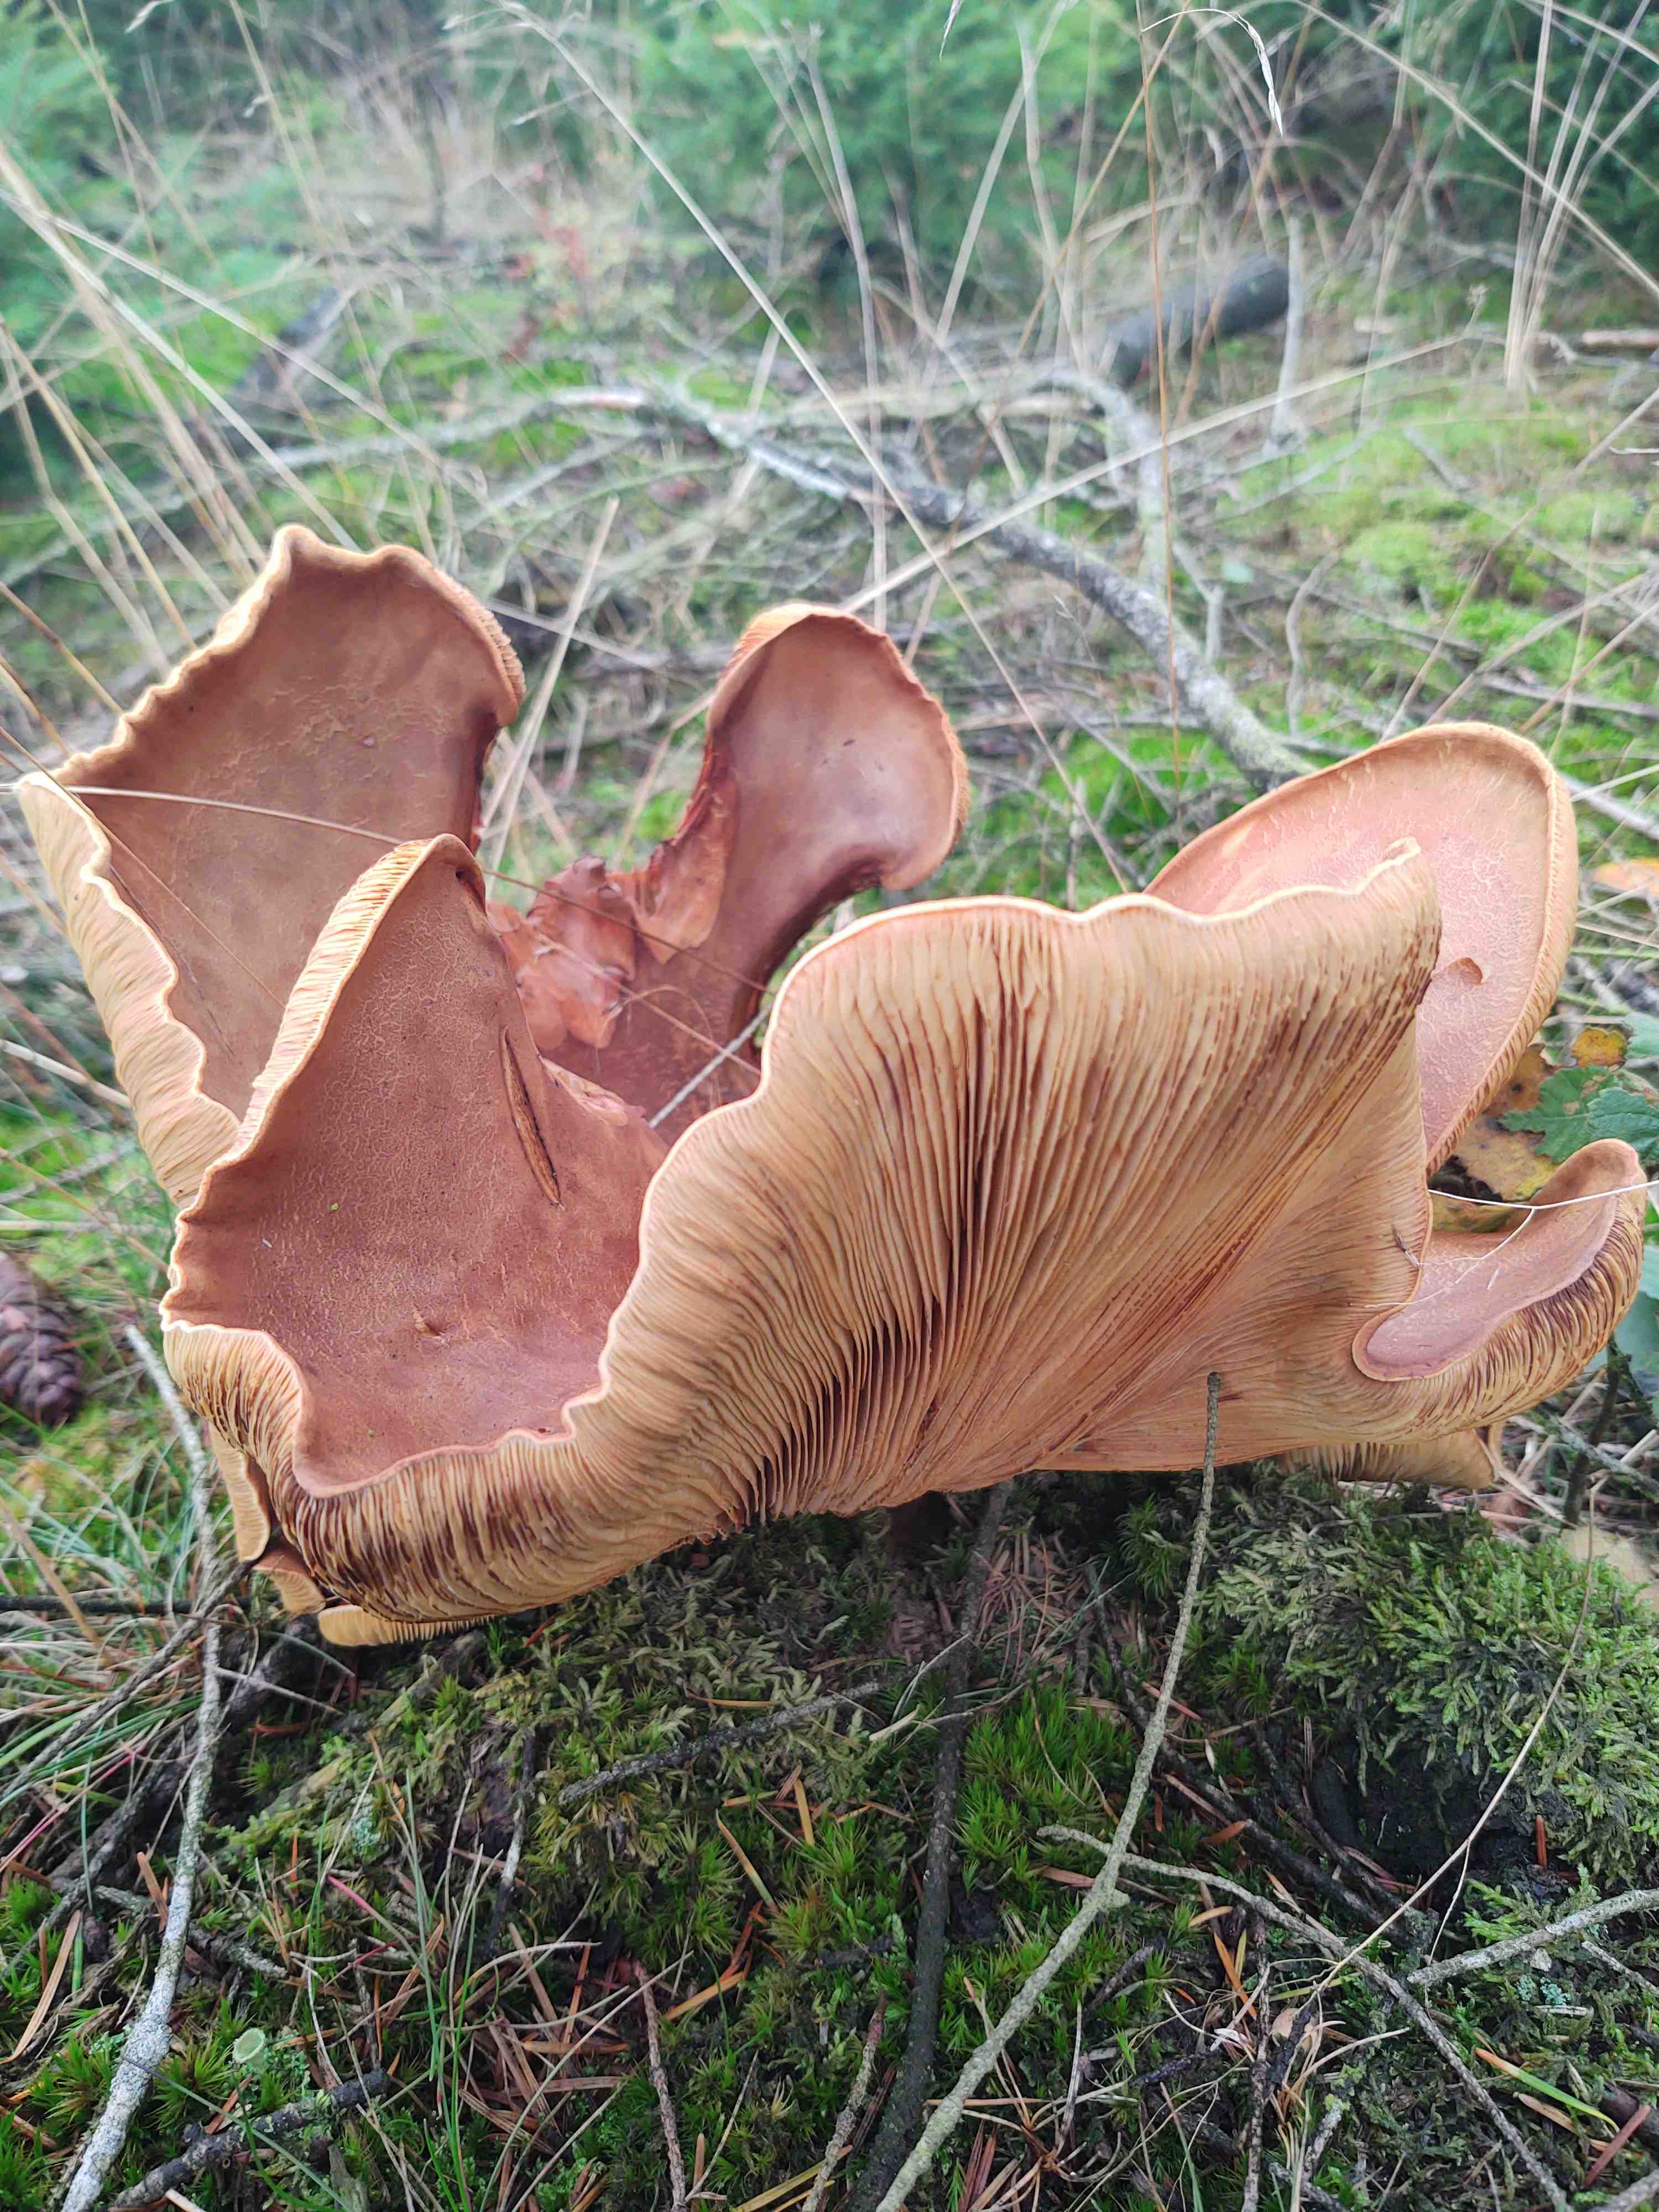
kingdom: Fungi
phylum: Basidiomycota
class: Agaricomycetes
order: Boletales
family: Tapinellaceae
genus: Tapinella
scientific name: Tapinella atrotomentosa
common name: sortfiltet viftesvamp
